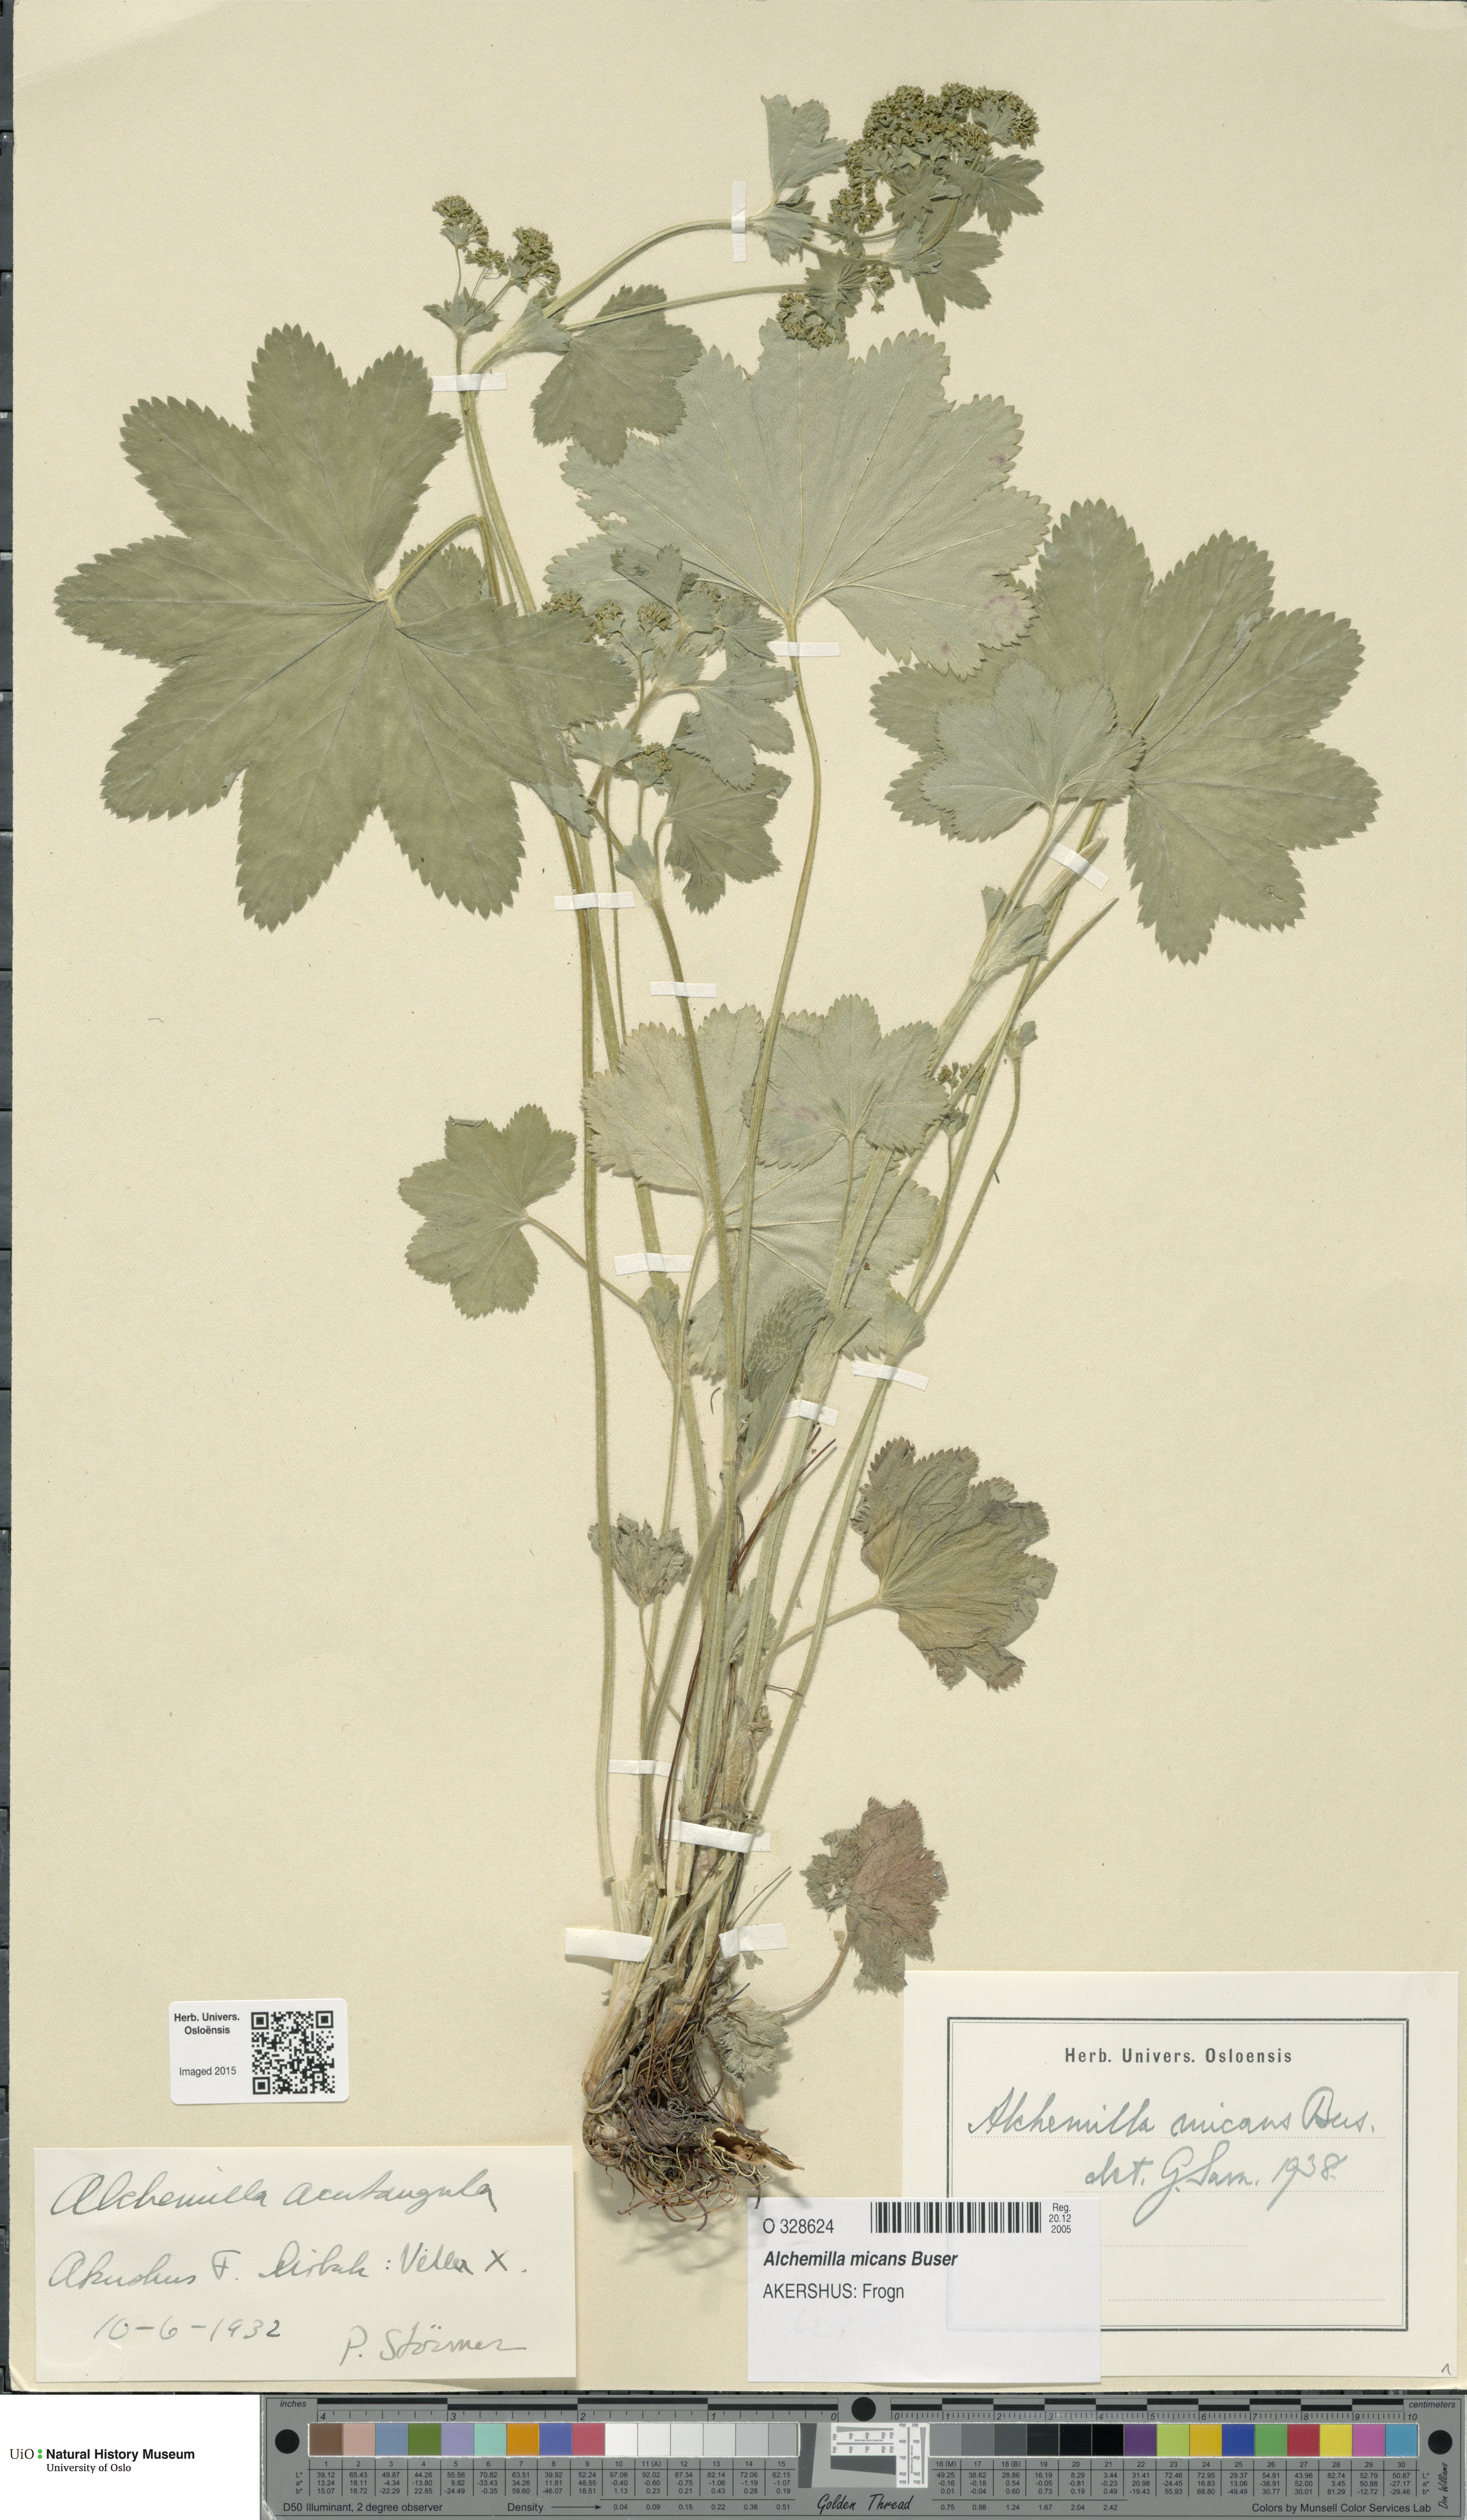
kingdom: Plantae
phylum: Tracheophyta
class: Magnoliopsida
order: Rosales
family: Rosaceae
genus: Alchemilla
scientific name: Alchemilla micans
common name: Gleaming lady's mantle
